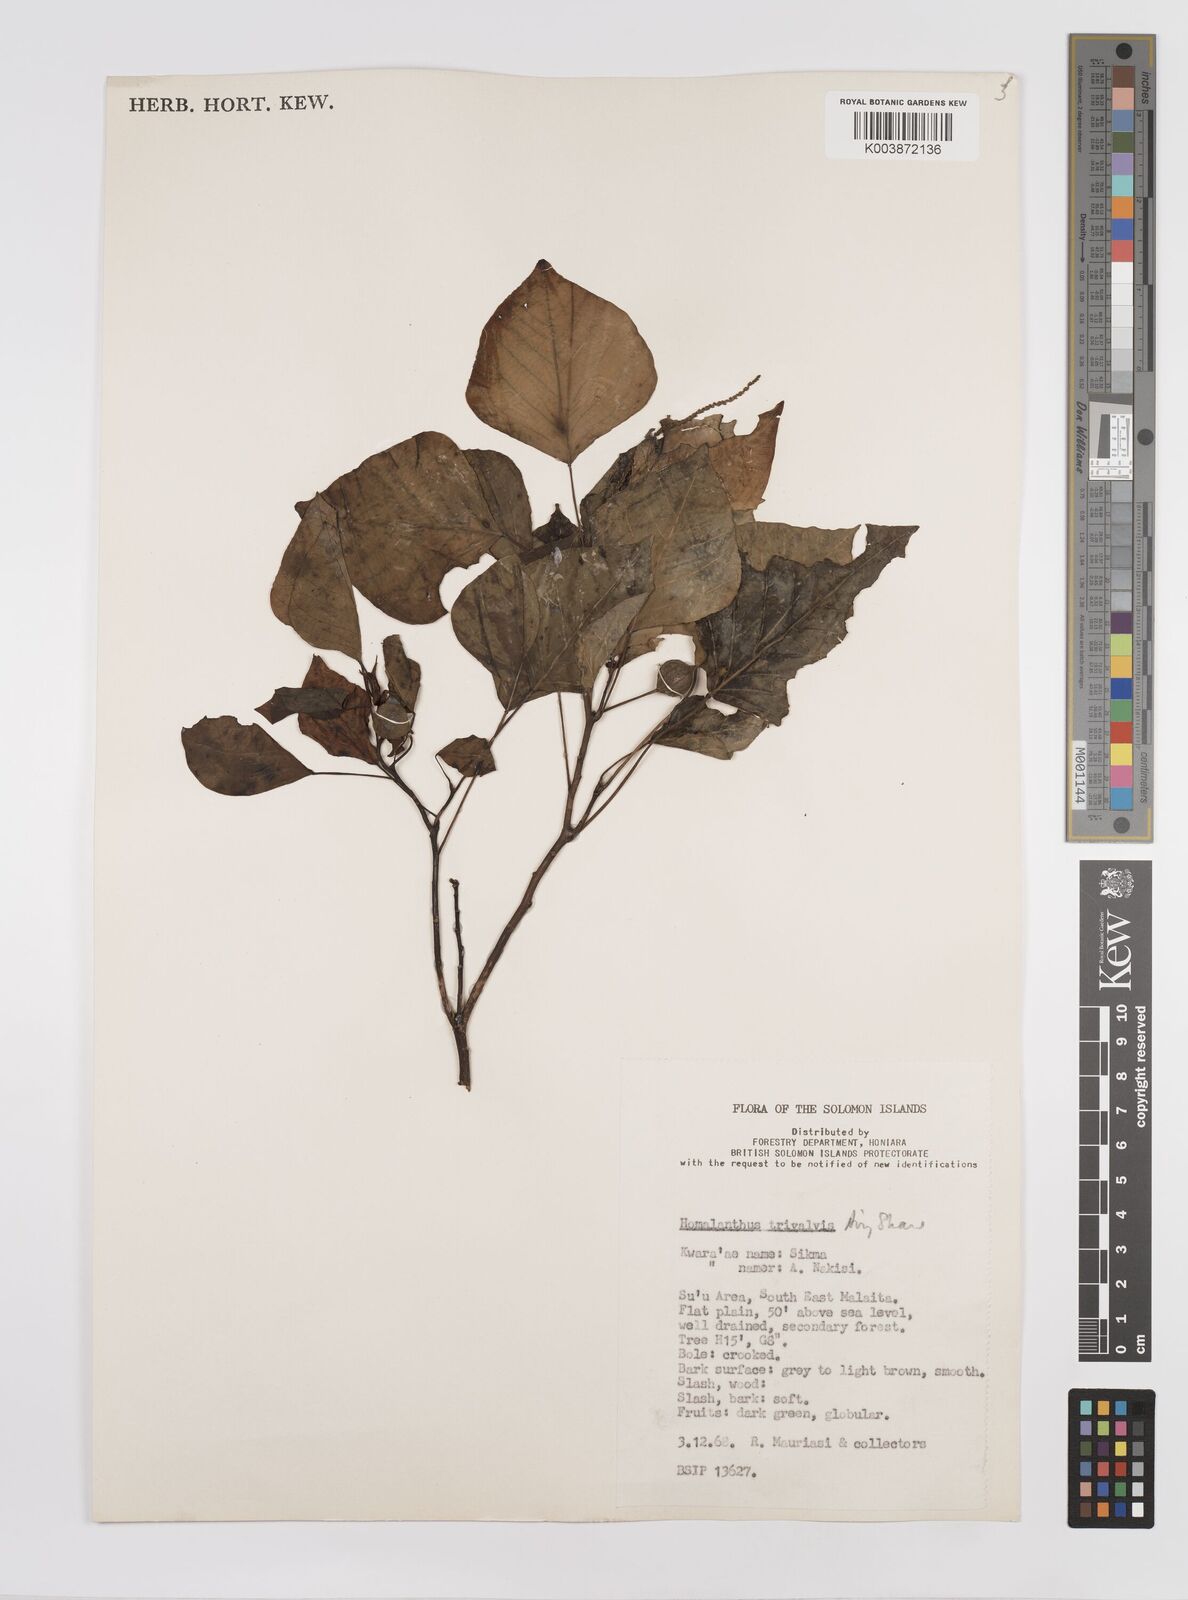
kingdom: Plantae
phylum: Tracheophyta
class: Magnoliopsida
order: Malpighiales
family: Euphorbiaceae
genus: Homalanthus
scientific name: Homalanthus trivalvis
